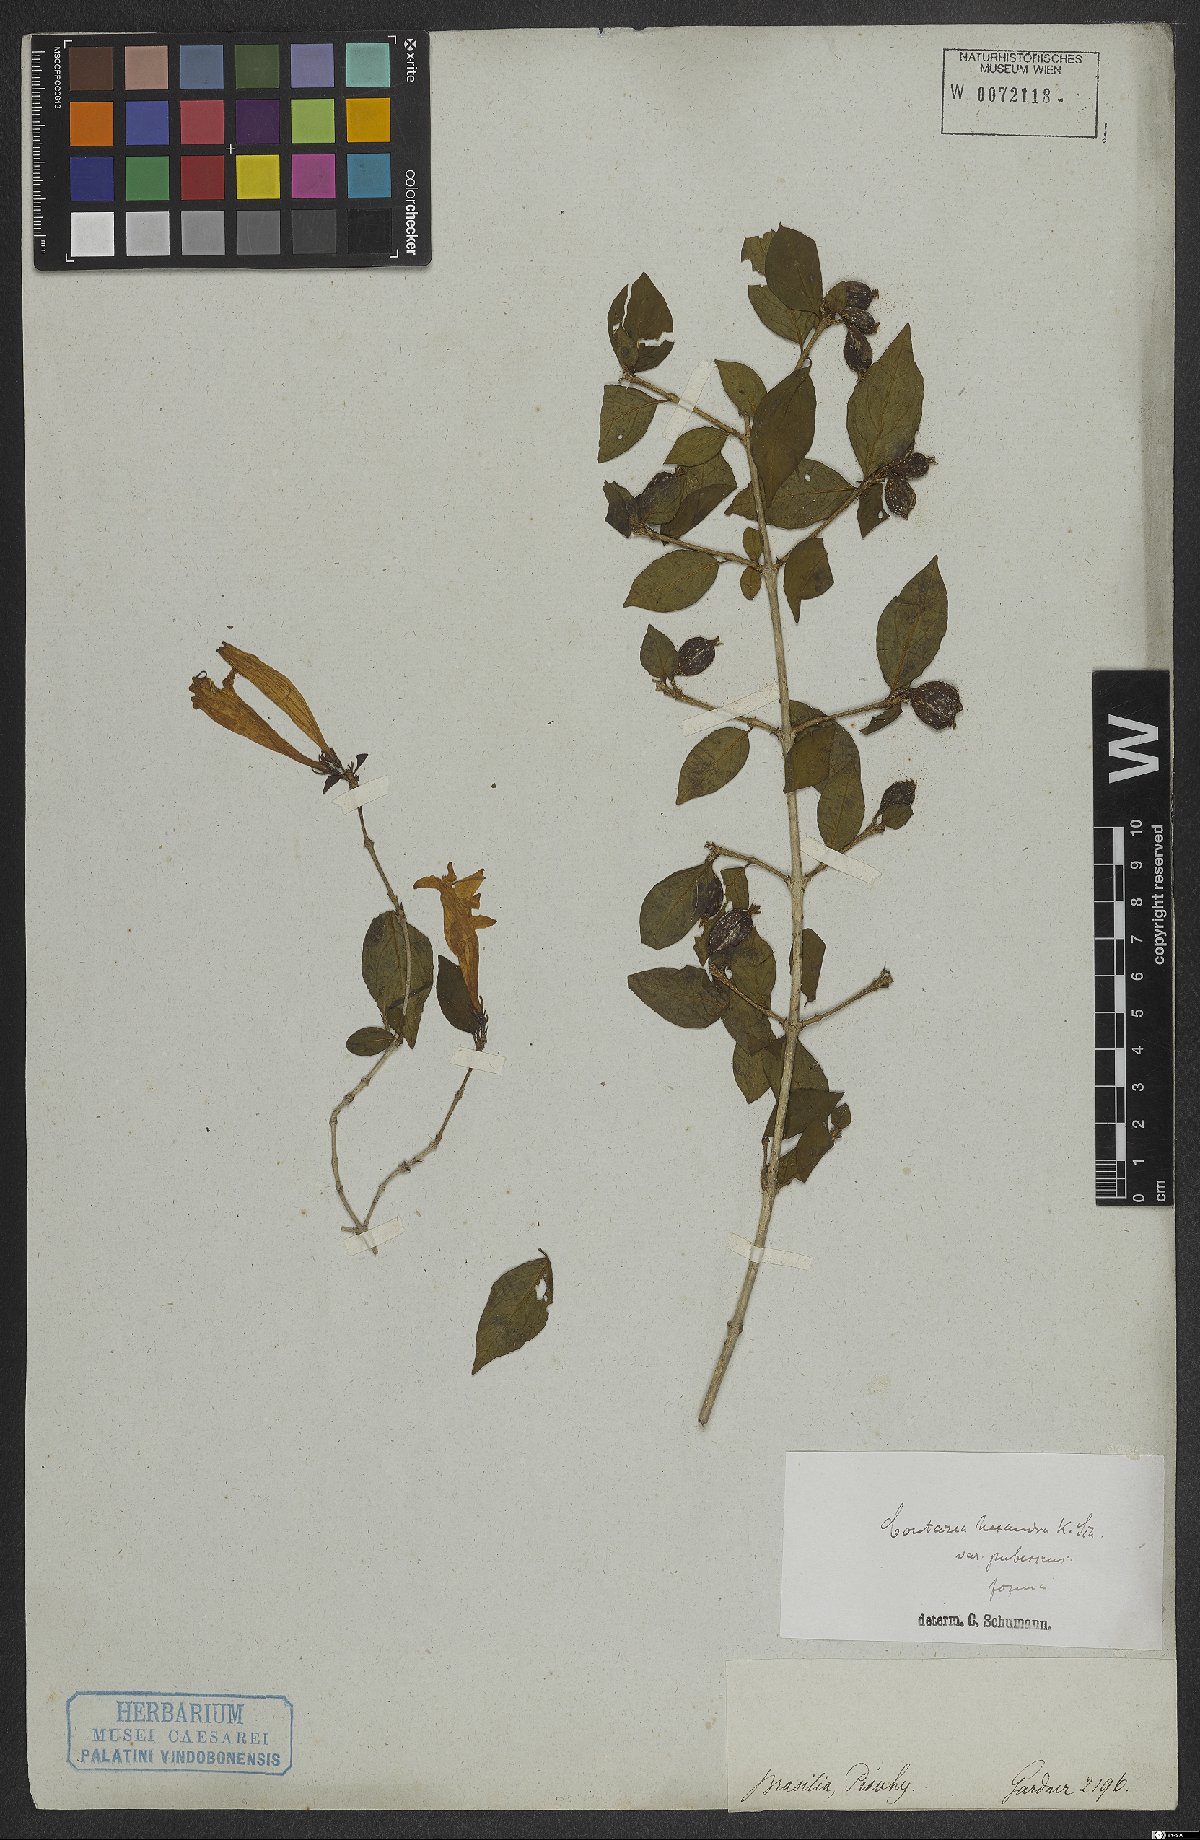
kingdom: Plantae
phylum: Tracheophyta
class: Magnoliopsida
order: Gentianales
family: Rubiaceae
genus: Coutarea
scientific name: Coutarea hexandra
